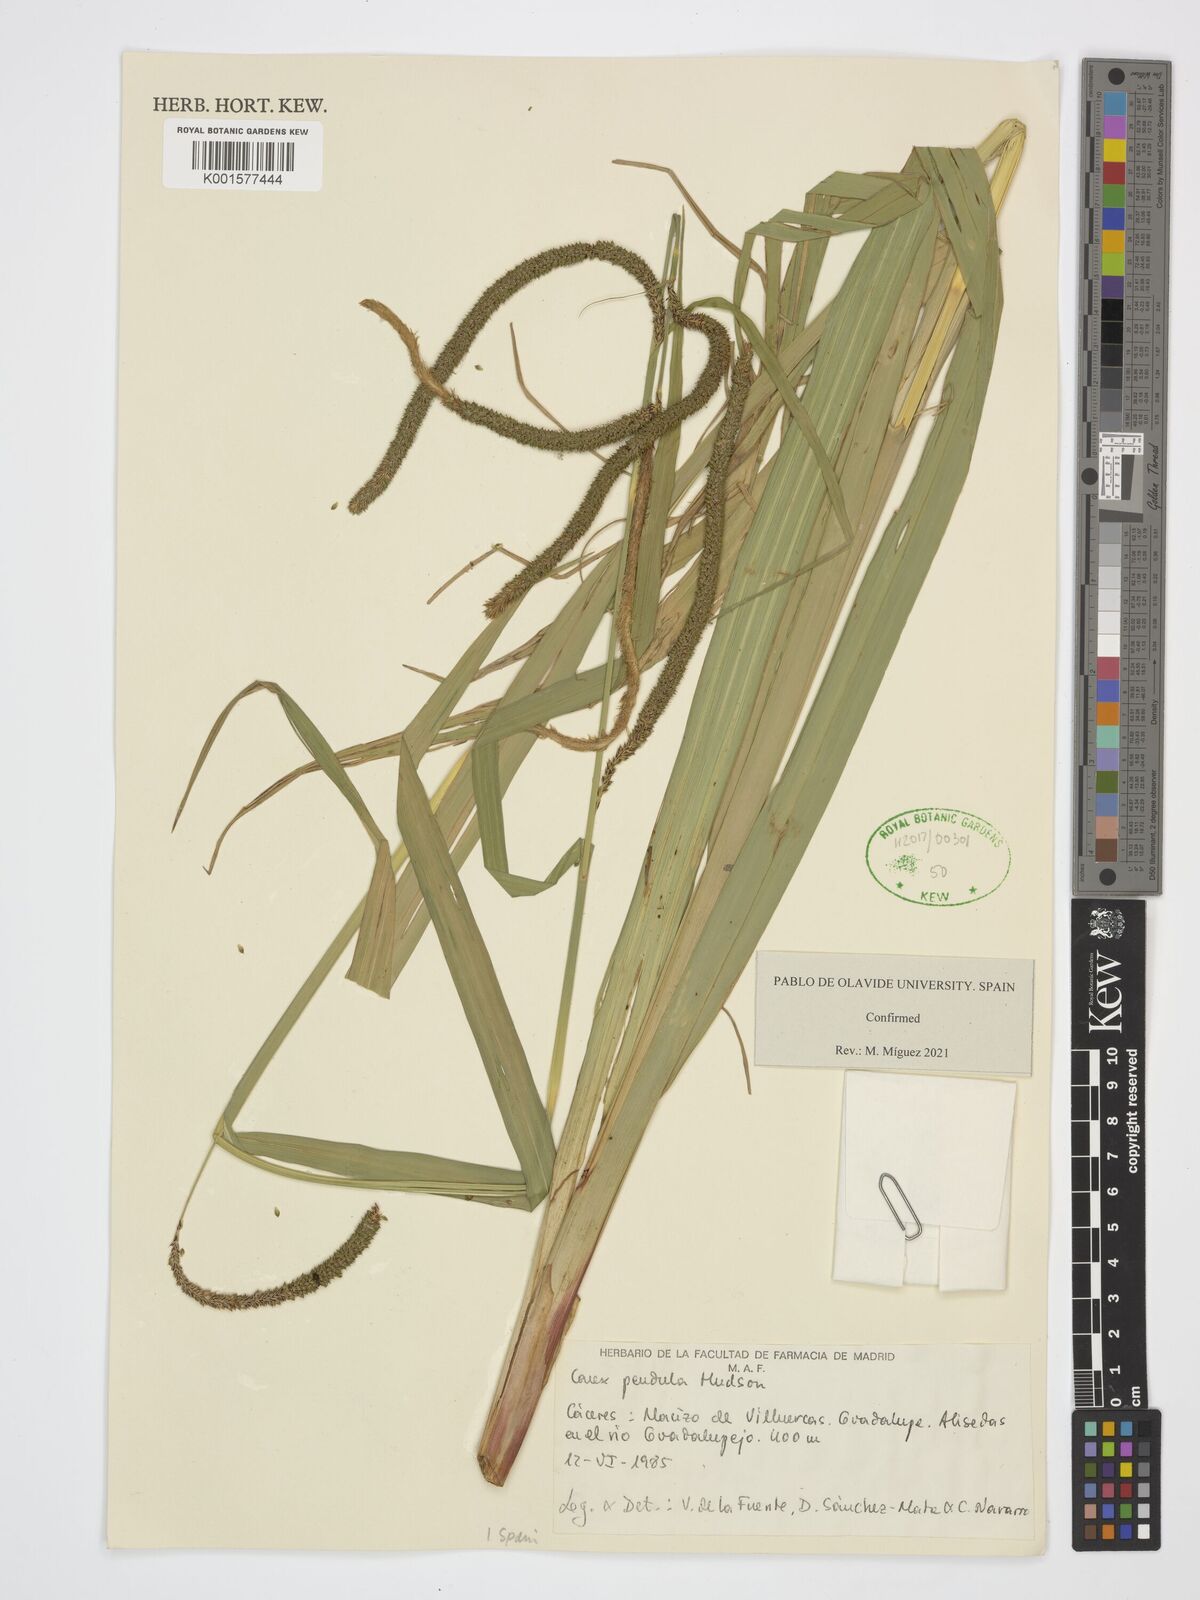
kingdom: Plantae
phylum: Tracheophyta
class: Liliopsida
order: Poales
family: Cyperaceae
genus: Carex
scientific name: Carex pendula
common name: Pendulous sedge
